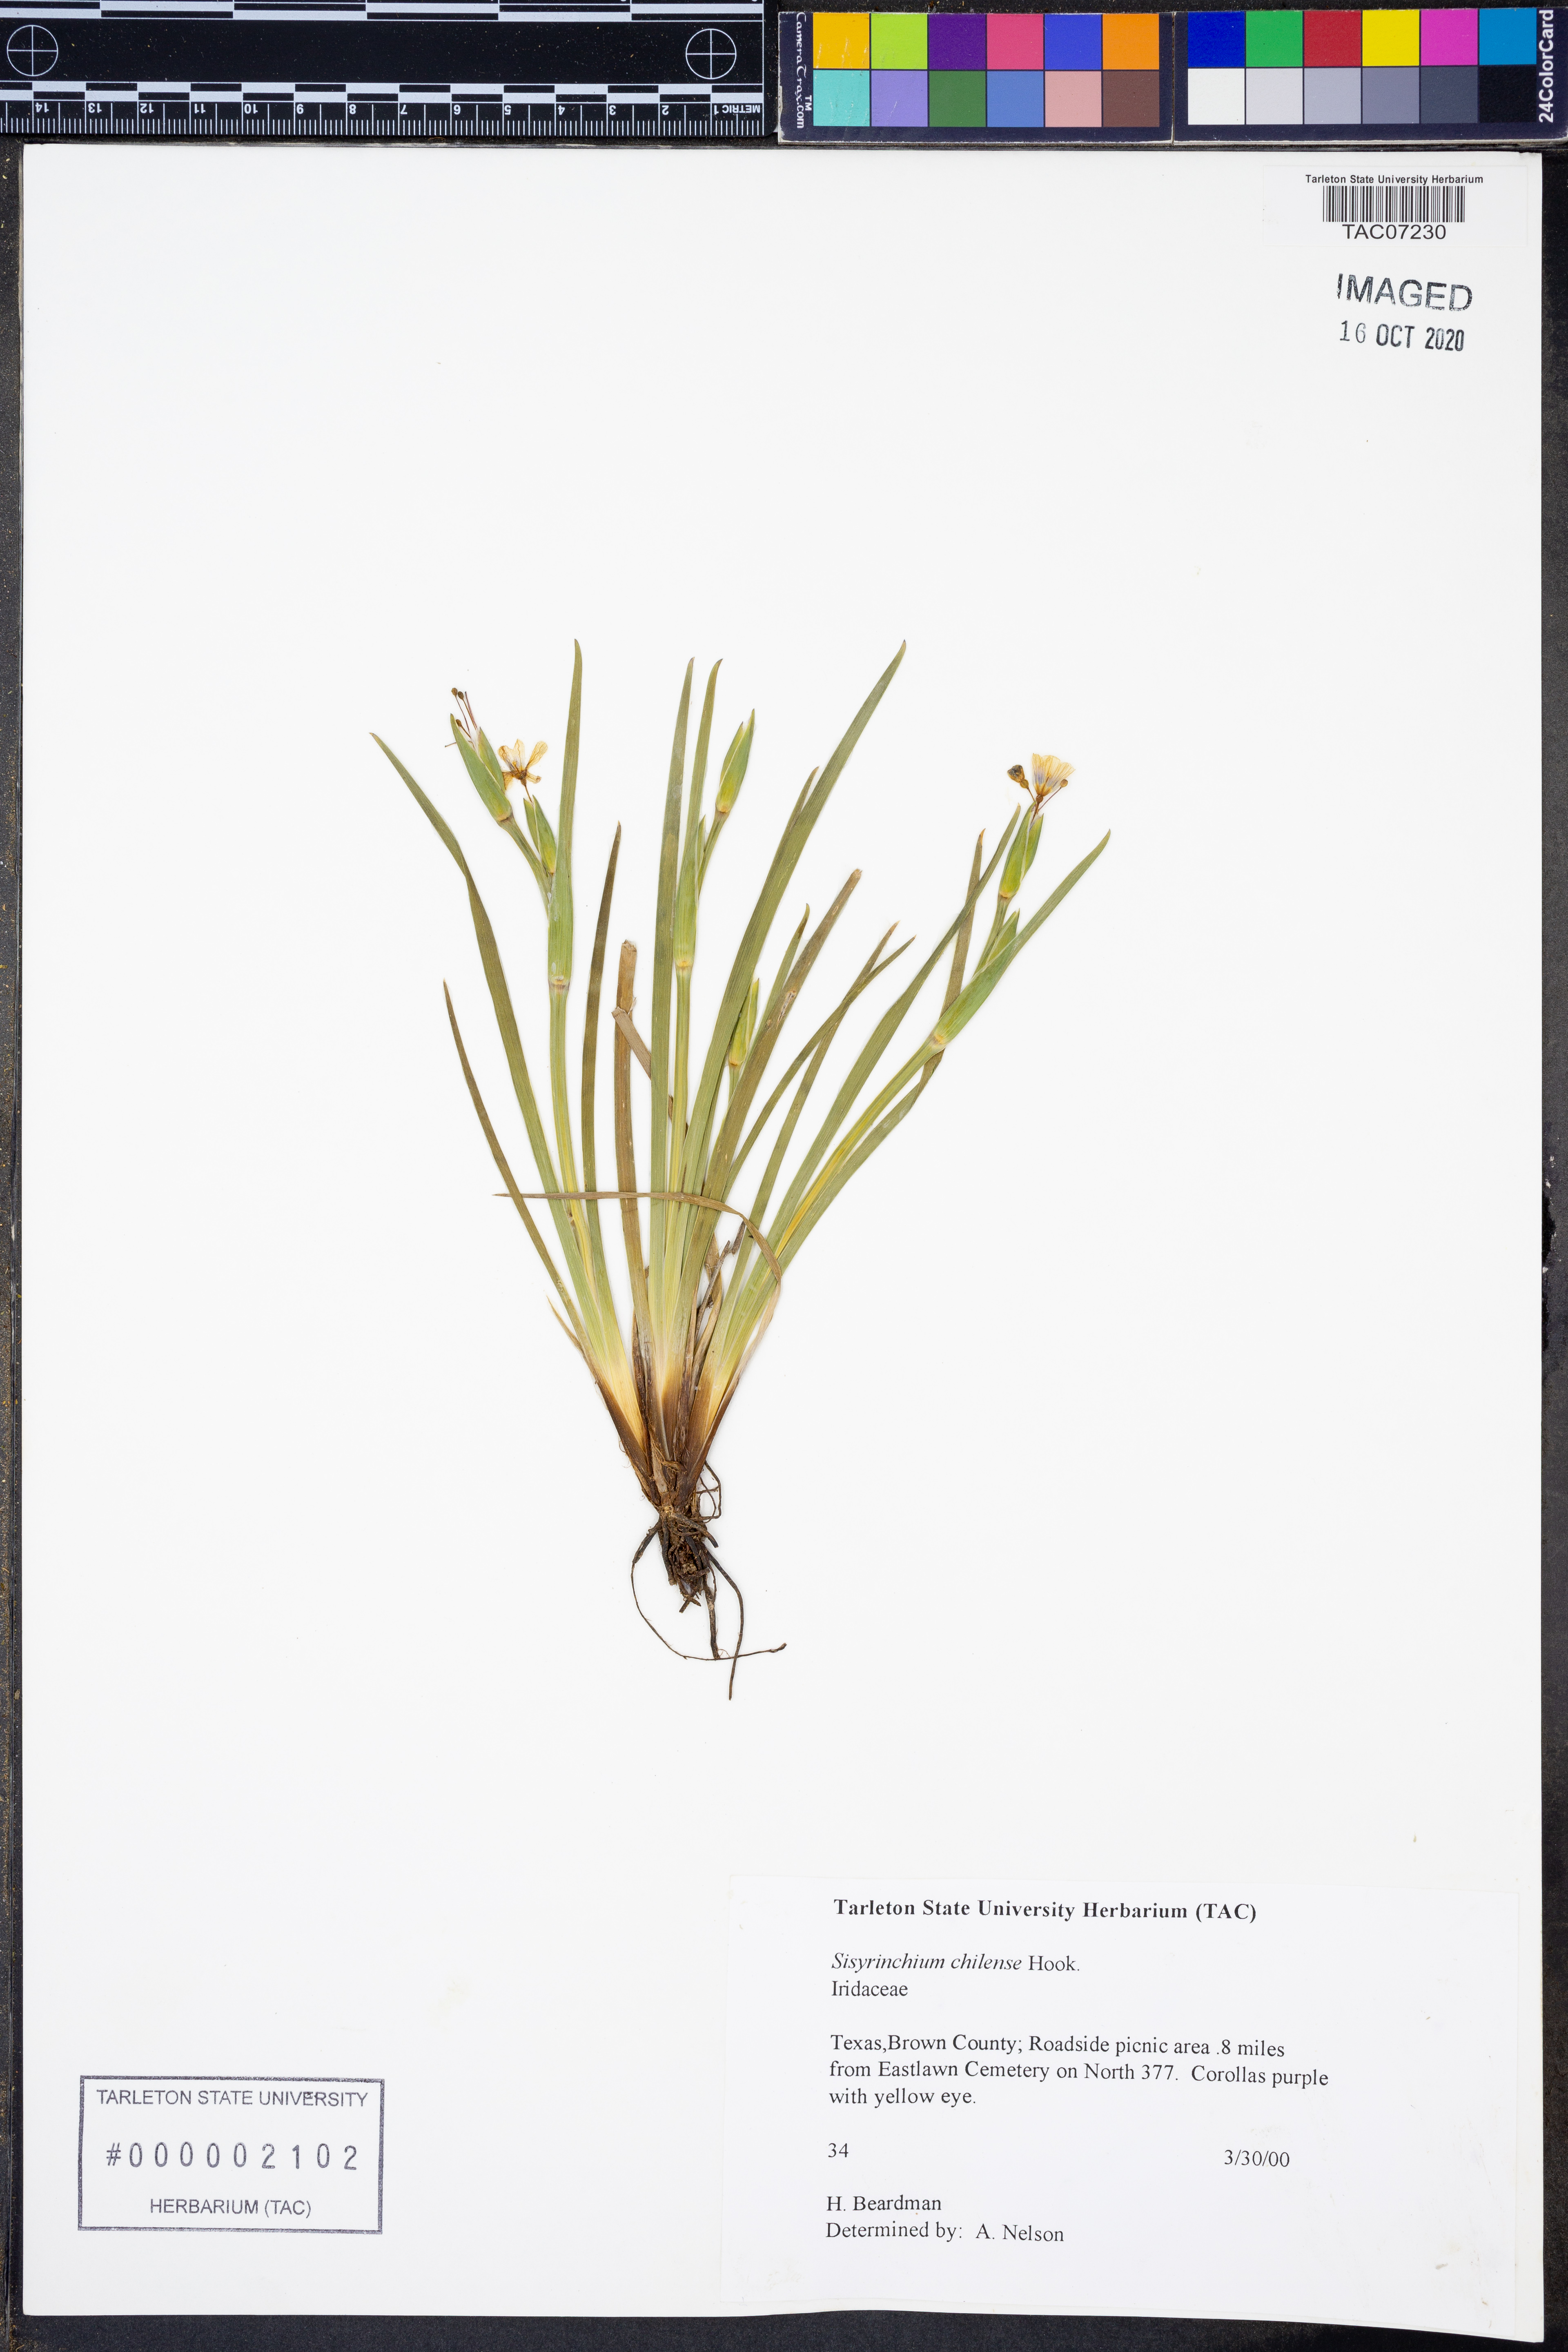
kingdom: Plantae
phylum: Tracheophyta
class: Liliopsida
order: Asparagales
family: Iridaceae
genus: Sisyrinchium
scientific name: Sisyrinchium chilense
